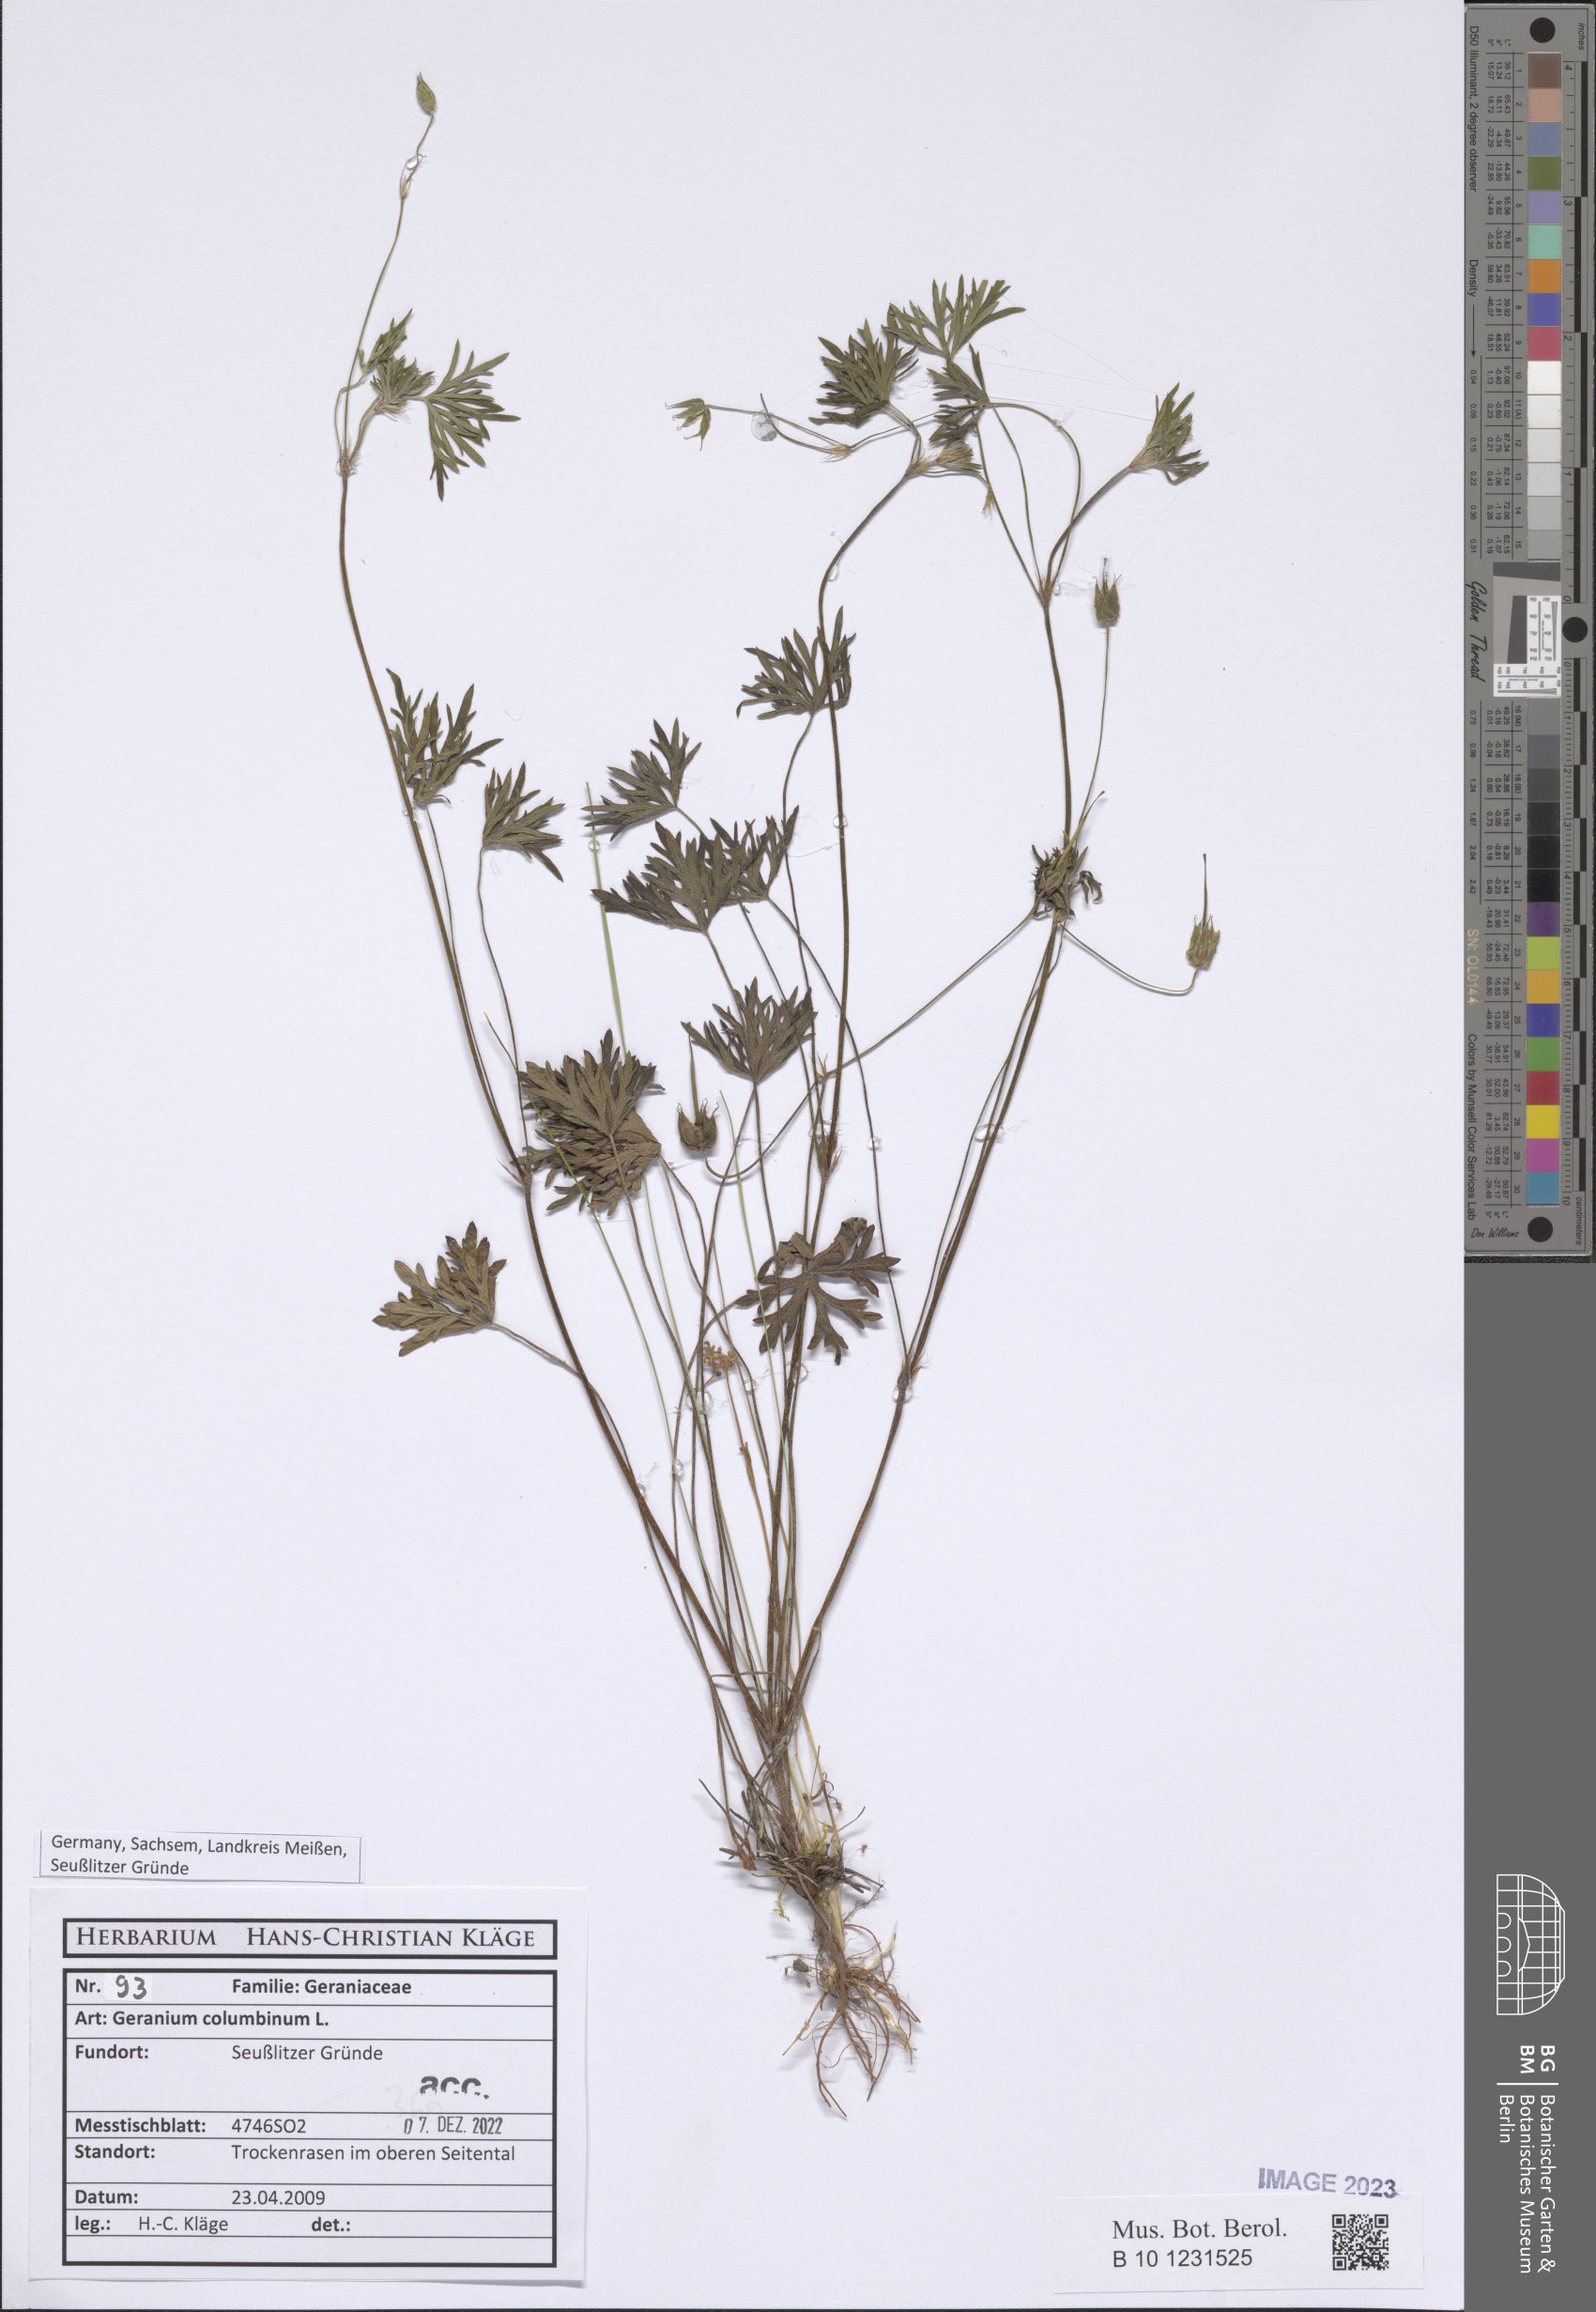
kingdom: Plantae
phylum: Tracheophyta
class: Magnoliopsida
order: Geraniales
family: Geraniaceae
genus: Geranium
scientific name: Geranium columbinum
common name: Long-stalked crane's-bill
